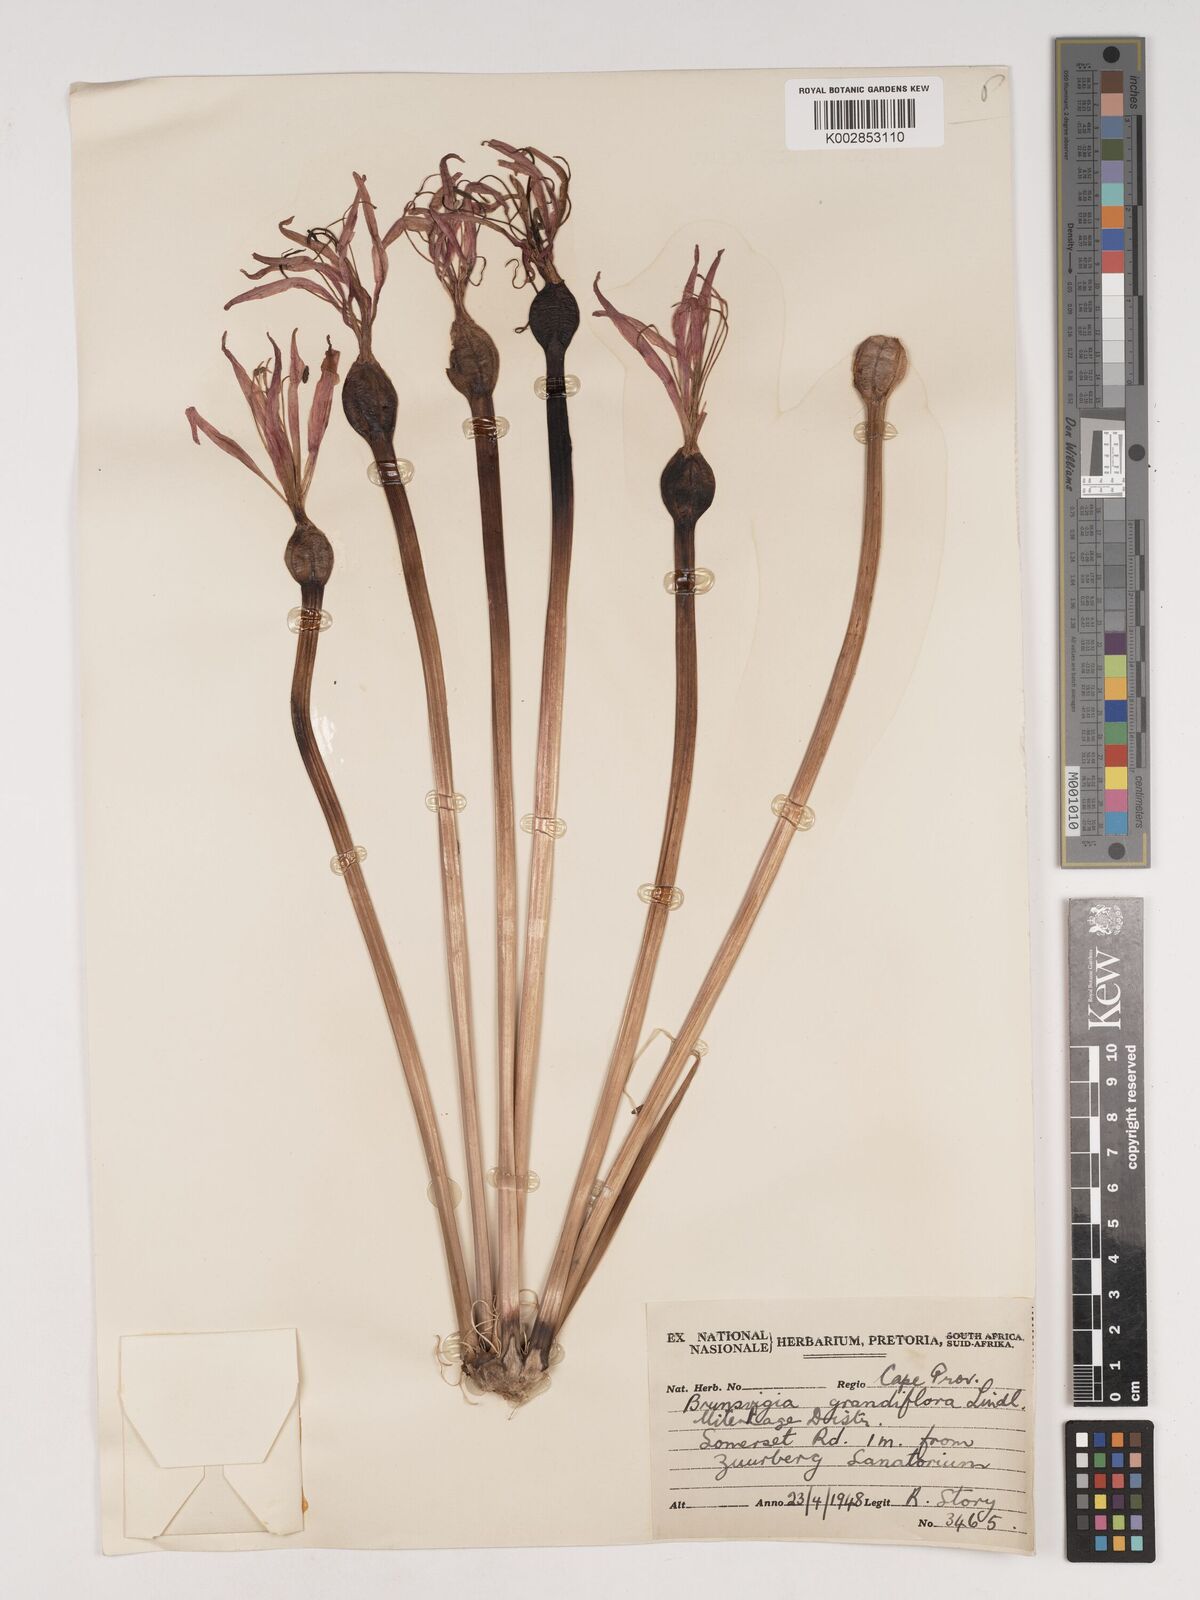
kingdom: Plantae
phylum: Tracheophyta
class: Liliopsida
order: Asparagales
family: Amaryllidaceae
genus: Brunsvigia
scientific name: Brunsvigia grandiflora
